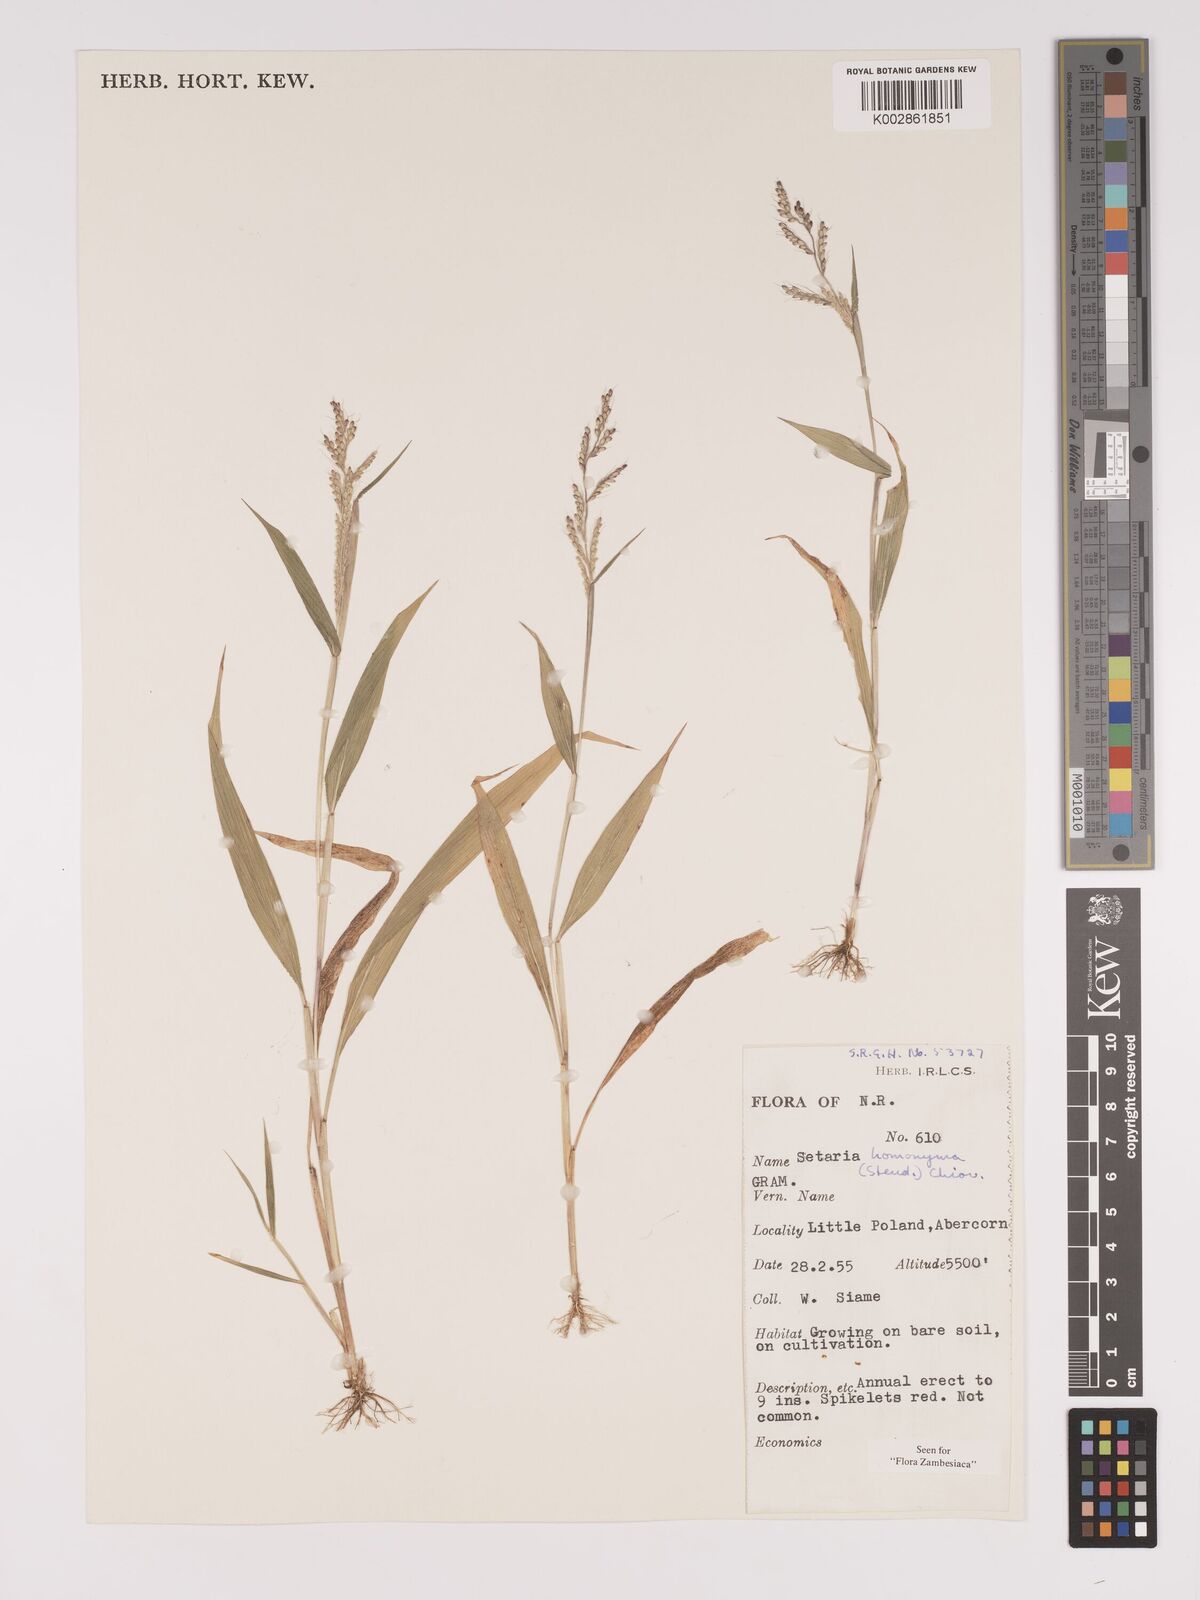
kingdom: Plantae
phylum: Tracheophyta
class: Liliopsida
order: Poales
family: Poaceae
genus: Setaria
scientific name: Setaria homonyma
